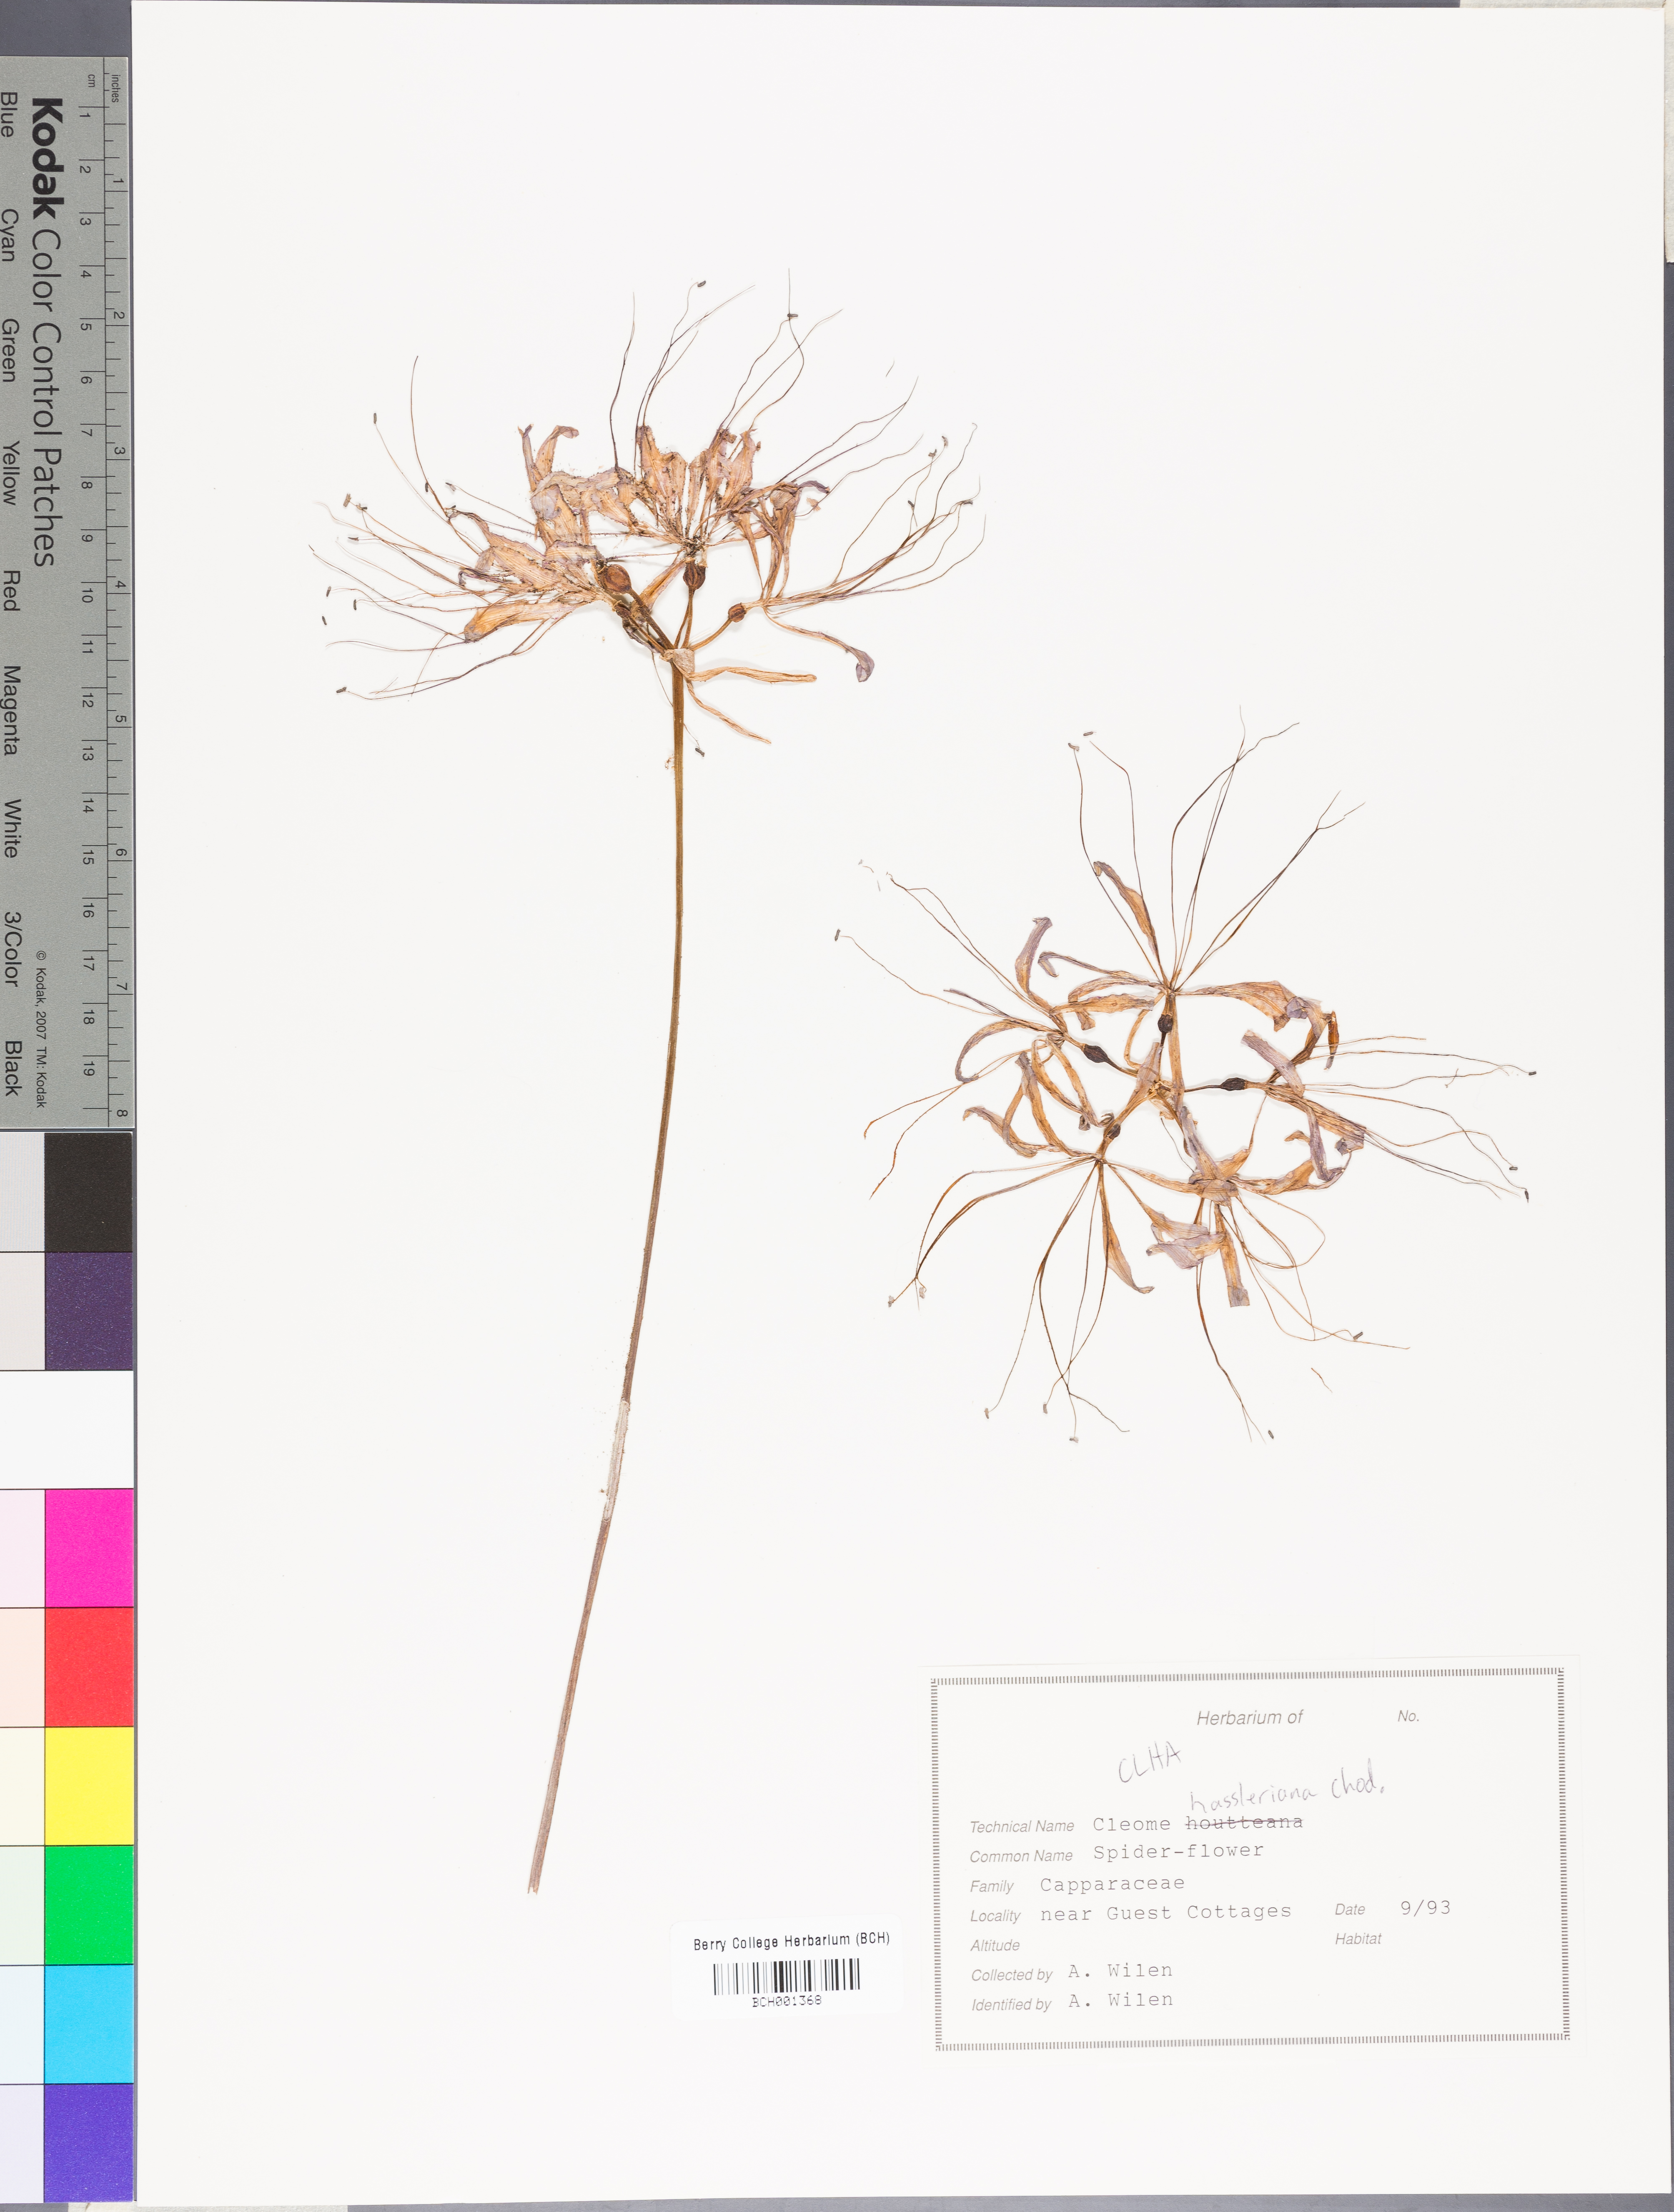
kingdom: Plantae
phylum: Tracheophyta
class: Magnoliopsida
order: Brassicales
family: Cleomaceae
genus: Tarenaya
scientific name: Tarenaya houtteana
